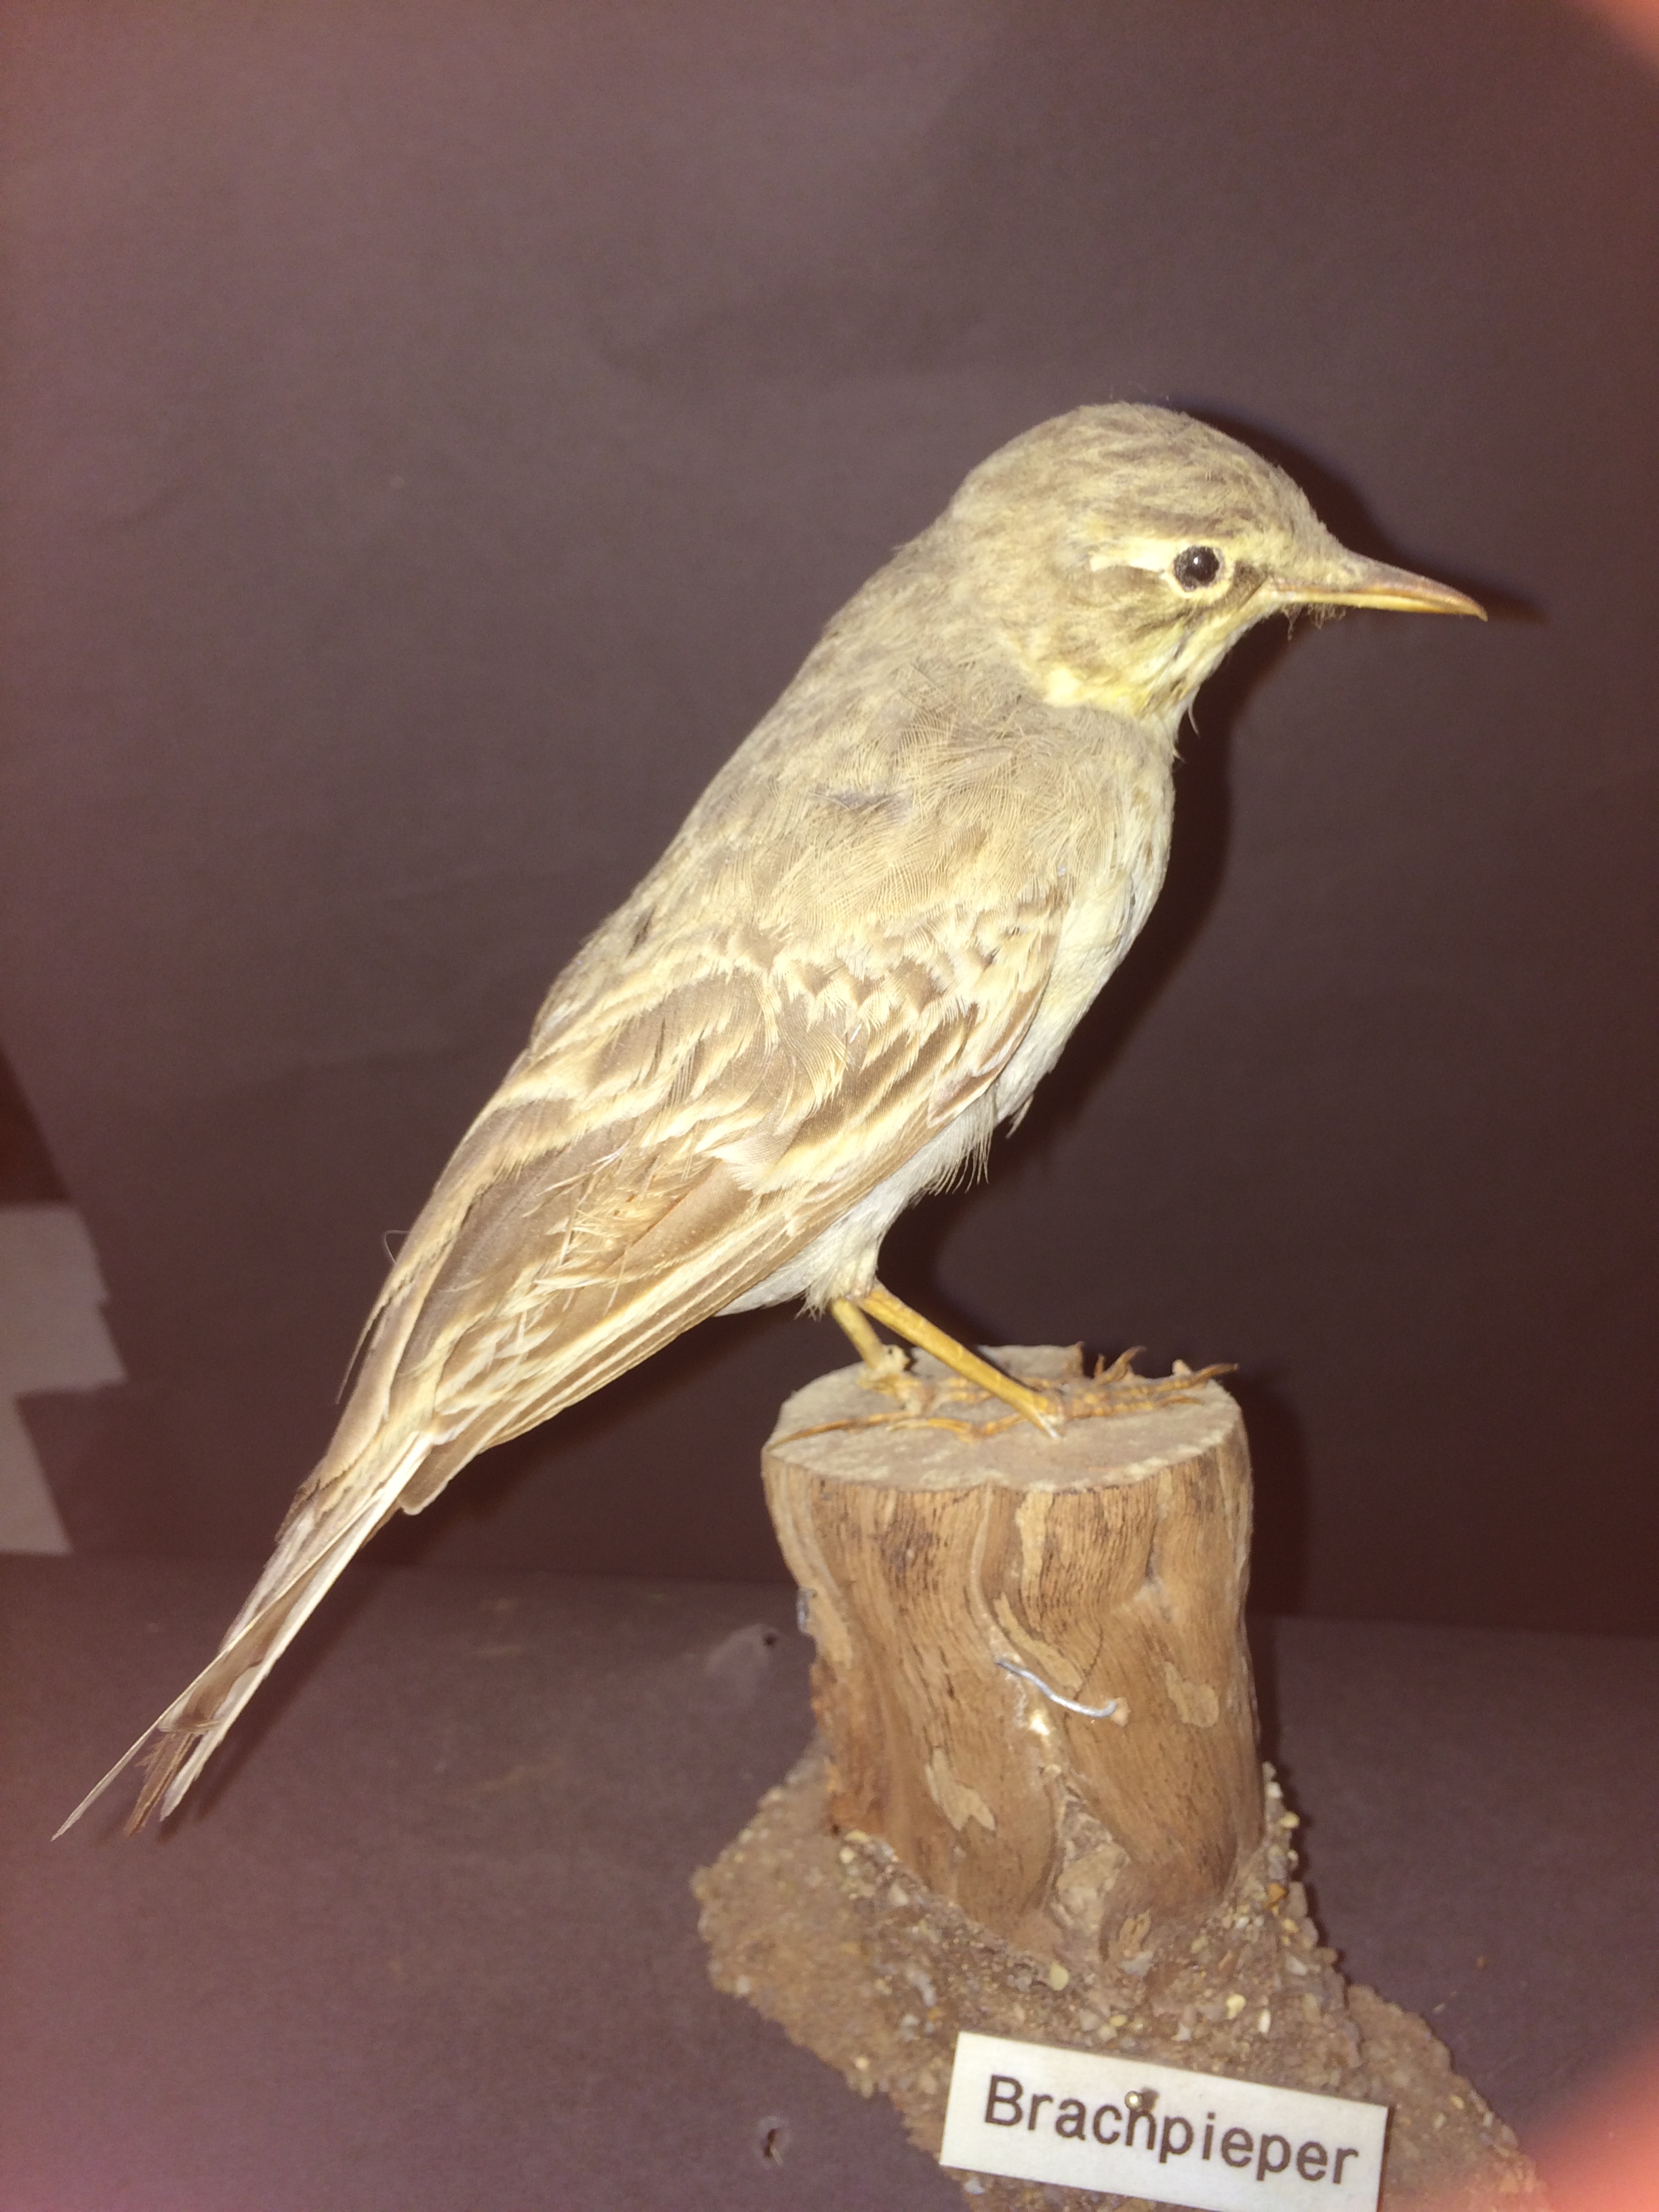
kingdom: Animalia
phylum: Chordata
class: Aves
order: Passeriformes
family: Motacillidae
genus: Anthus
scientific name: Anthus campestris
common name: Tawny pipit
